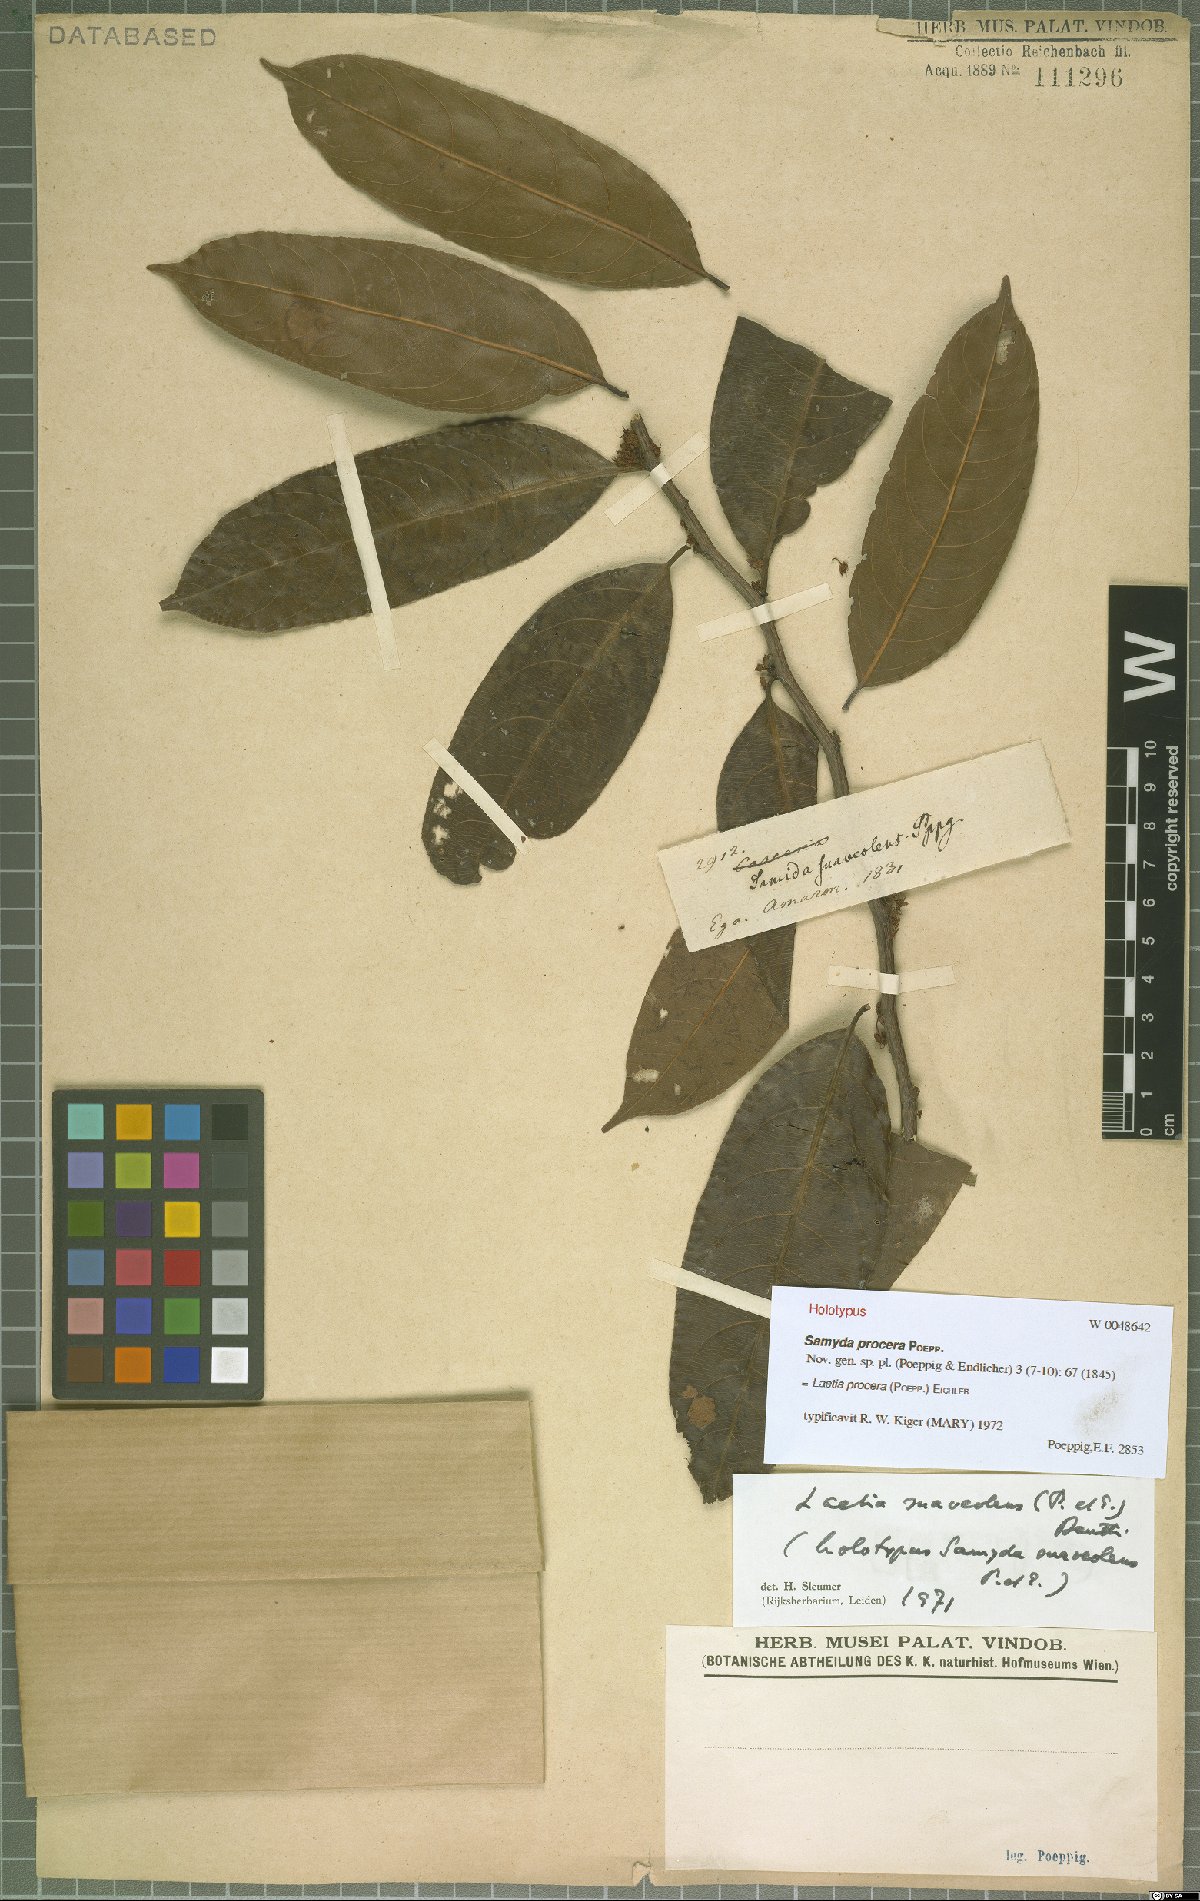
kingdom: Plantae
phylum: Tracheophyta
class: Magnoliopsida
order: Malpighiales
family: Salicaceae
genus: Casearia
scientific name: Casearia suaveolens
